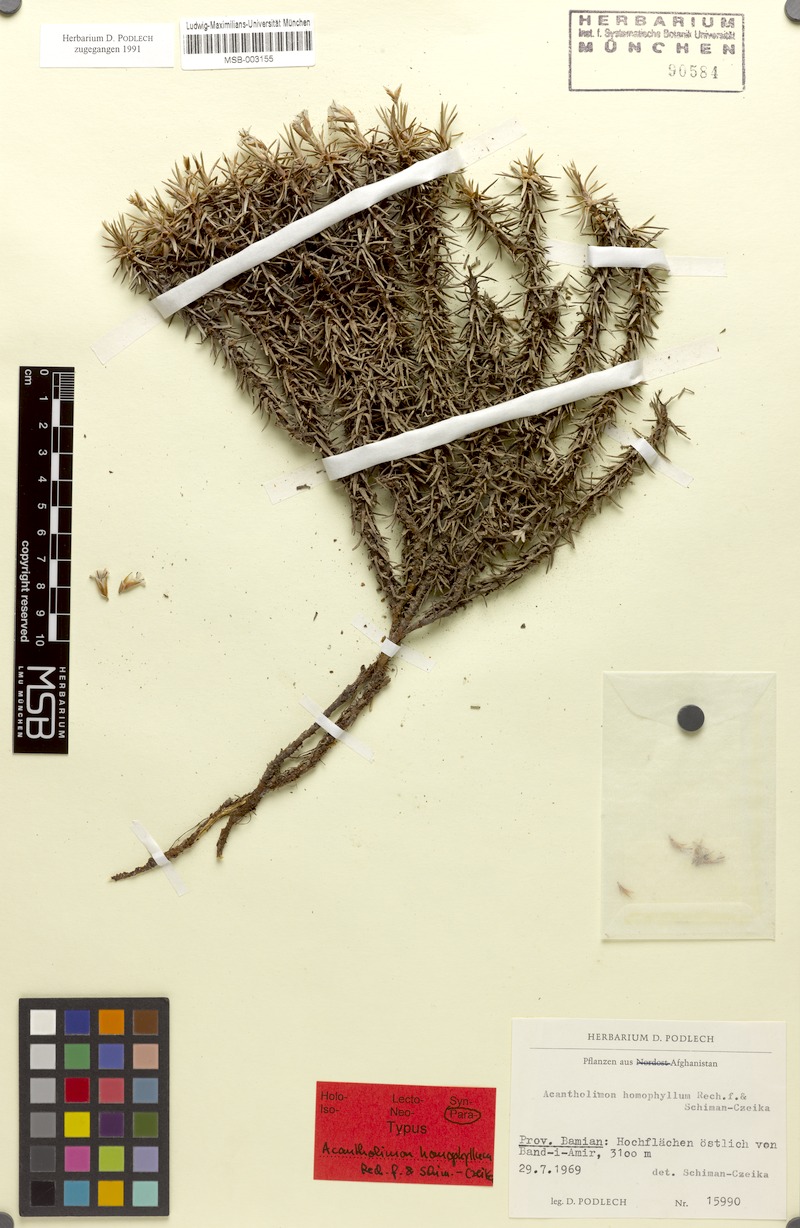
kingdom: Plantae
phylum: Tracheophyta
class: Magnoliopsida
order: Caryophyllales
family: Plumbaginaceae
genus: Acantholimon
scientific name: Acantholimon homophyllum
